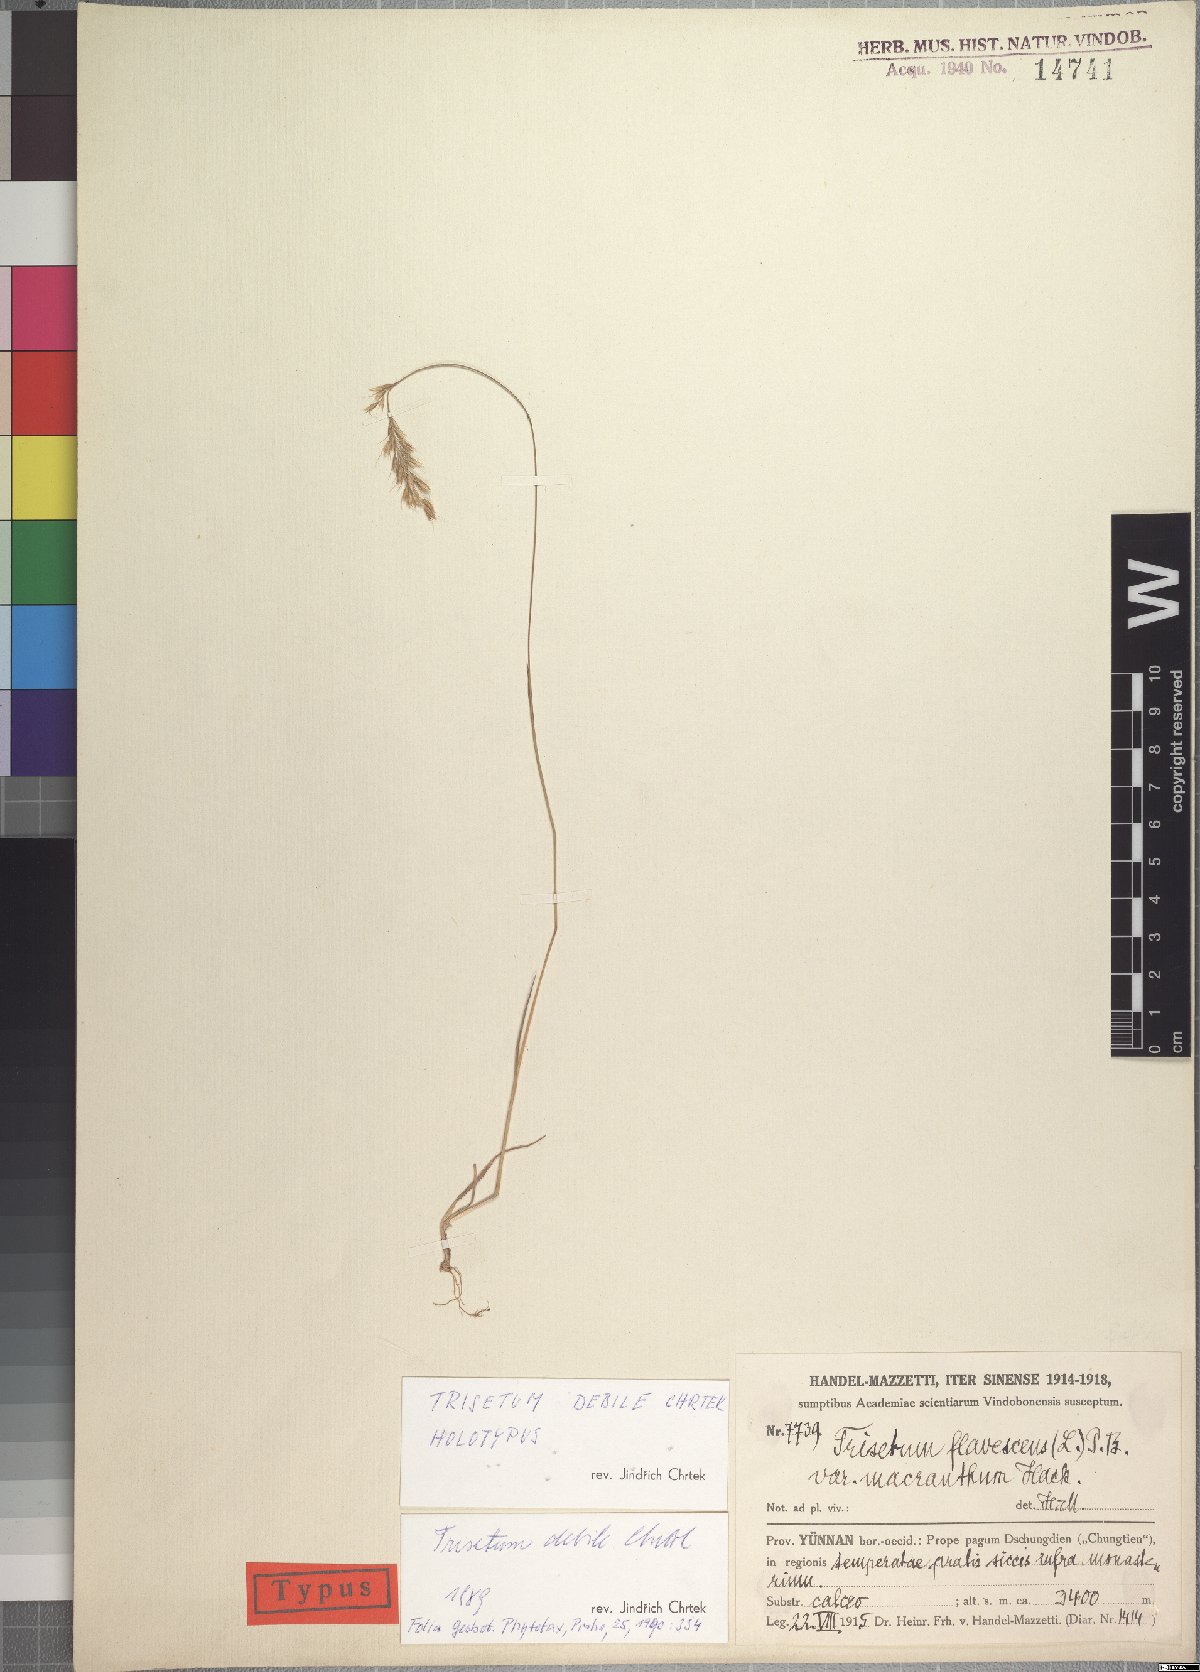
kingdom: Plantae
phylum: Tracheophyta
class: Liliopsida
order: Poales
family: Poaceae
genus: Trisetum
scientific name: Trisetum debile
